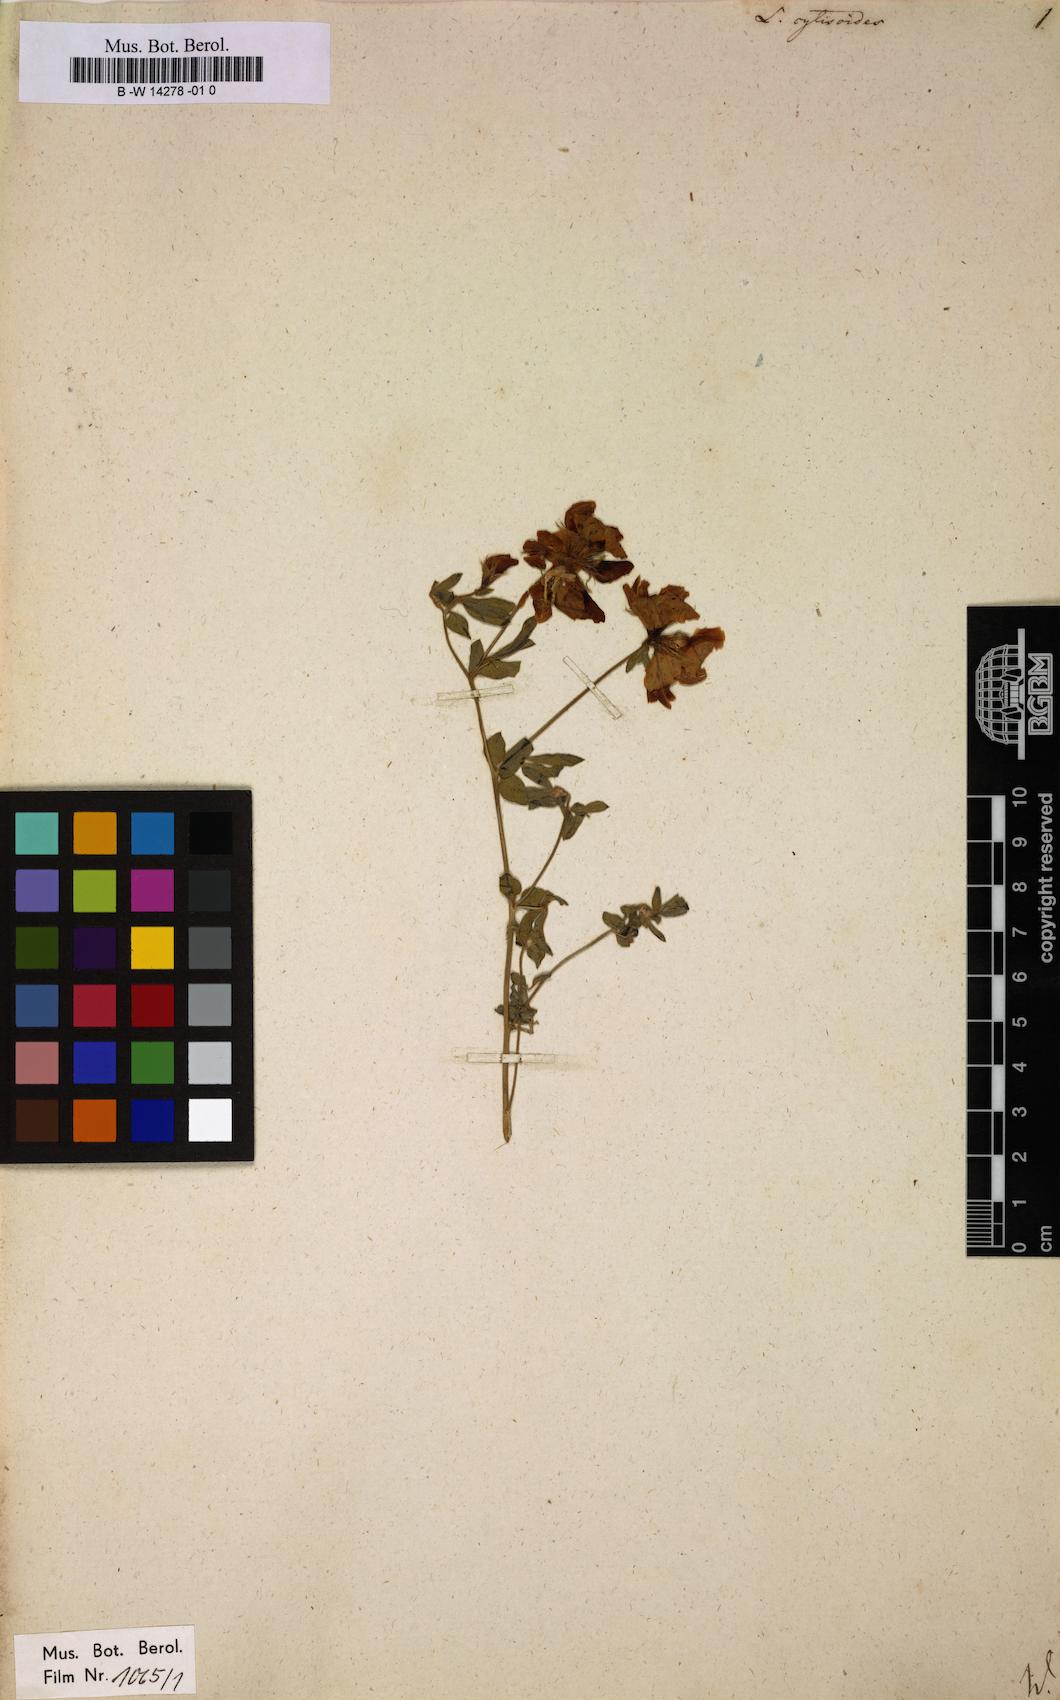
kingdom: Plantae
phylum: Tracheophyta
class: Magnoliopsida
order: Fabales
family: Fabaceae
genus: Lotus
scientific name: Lotus cytisoides
